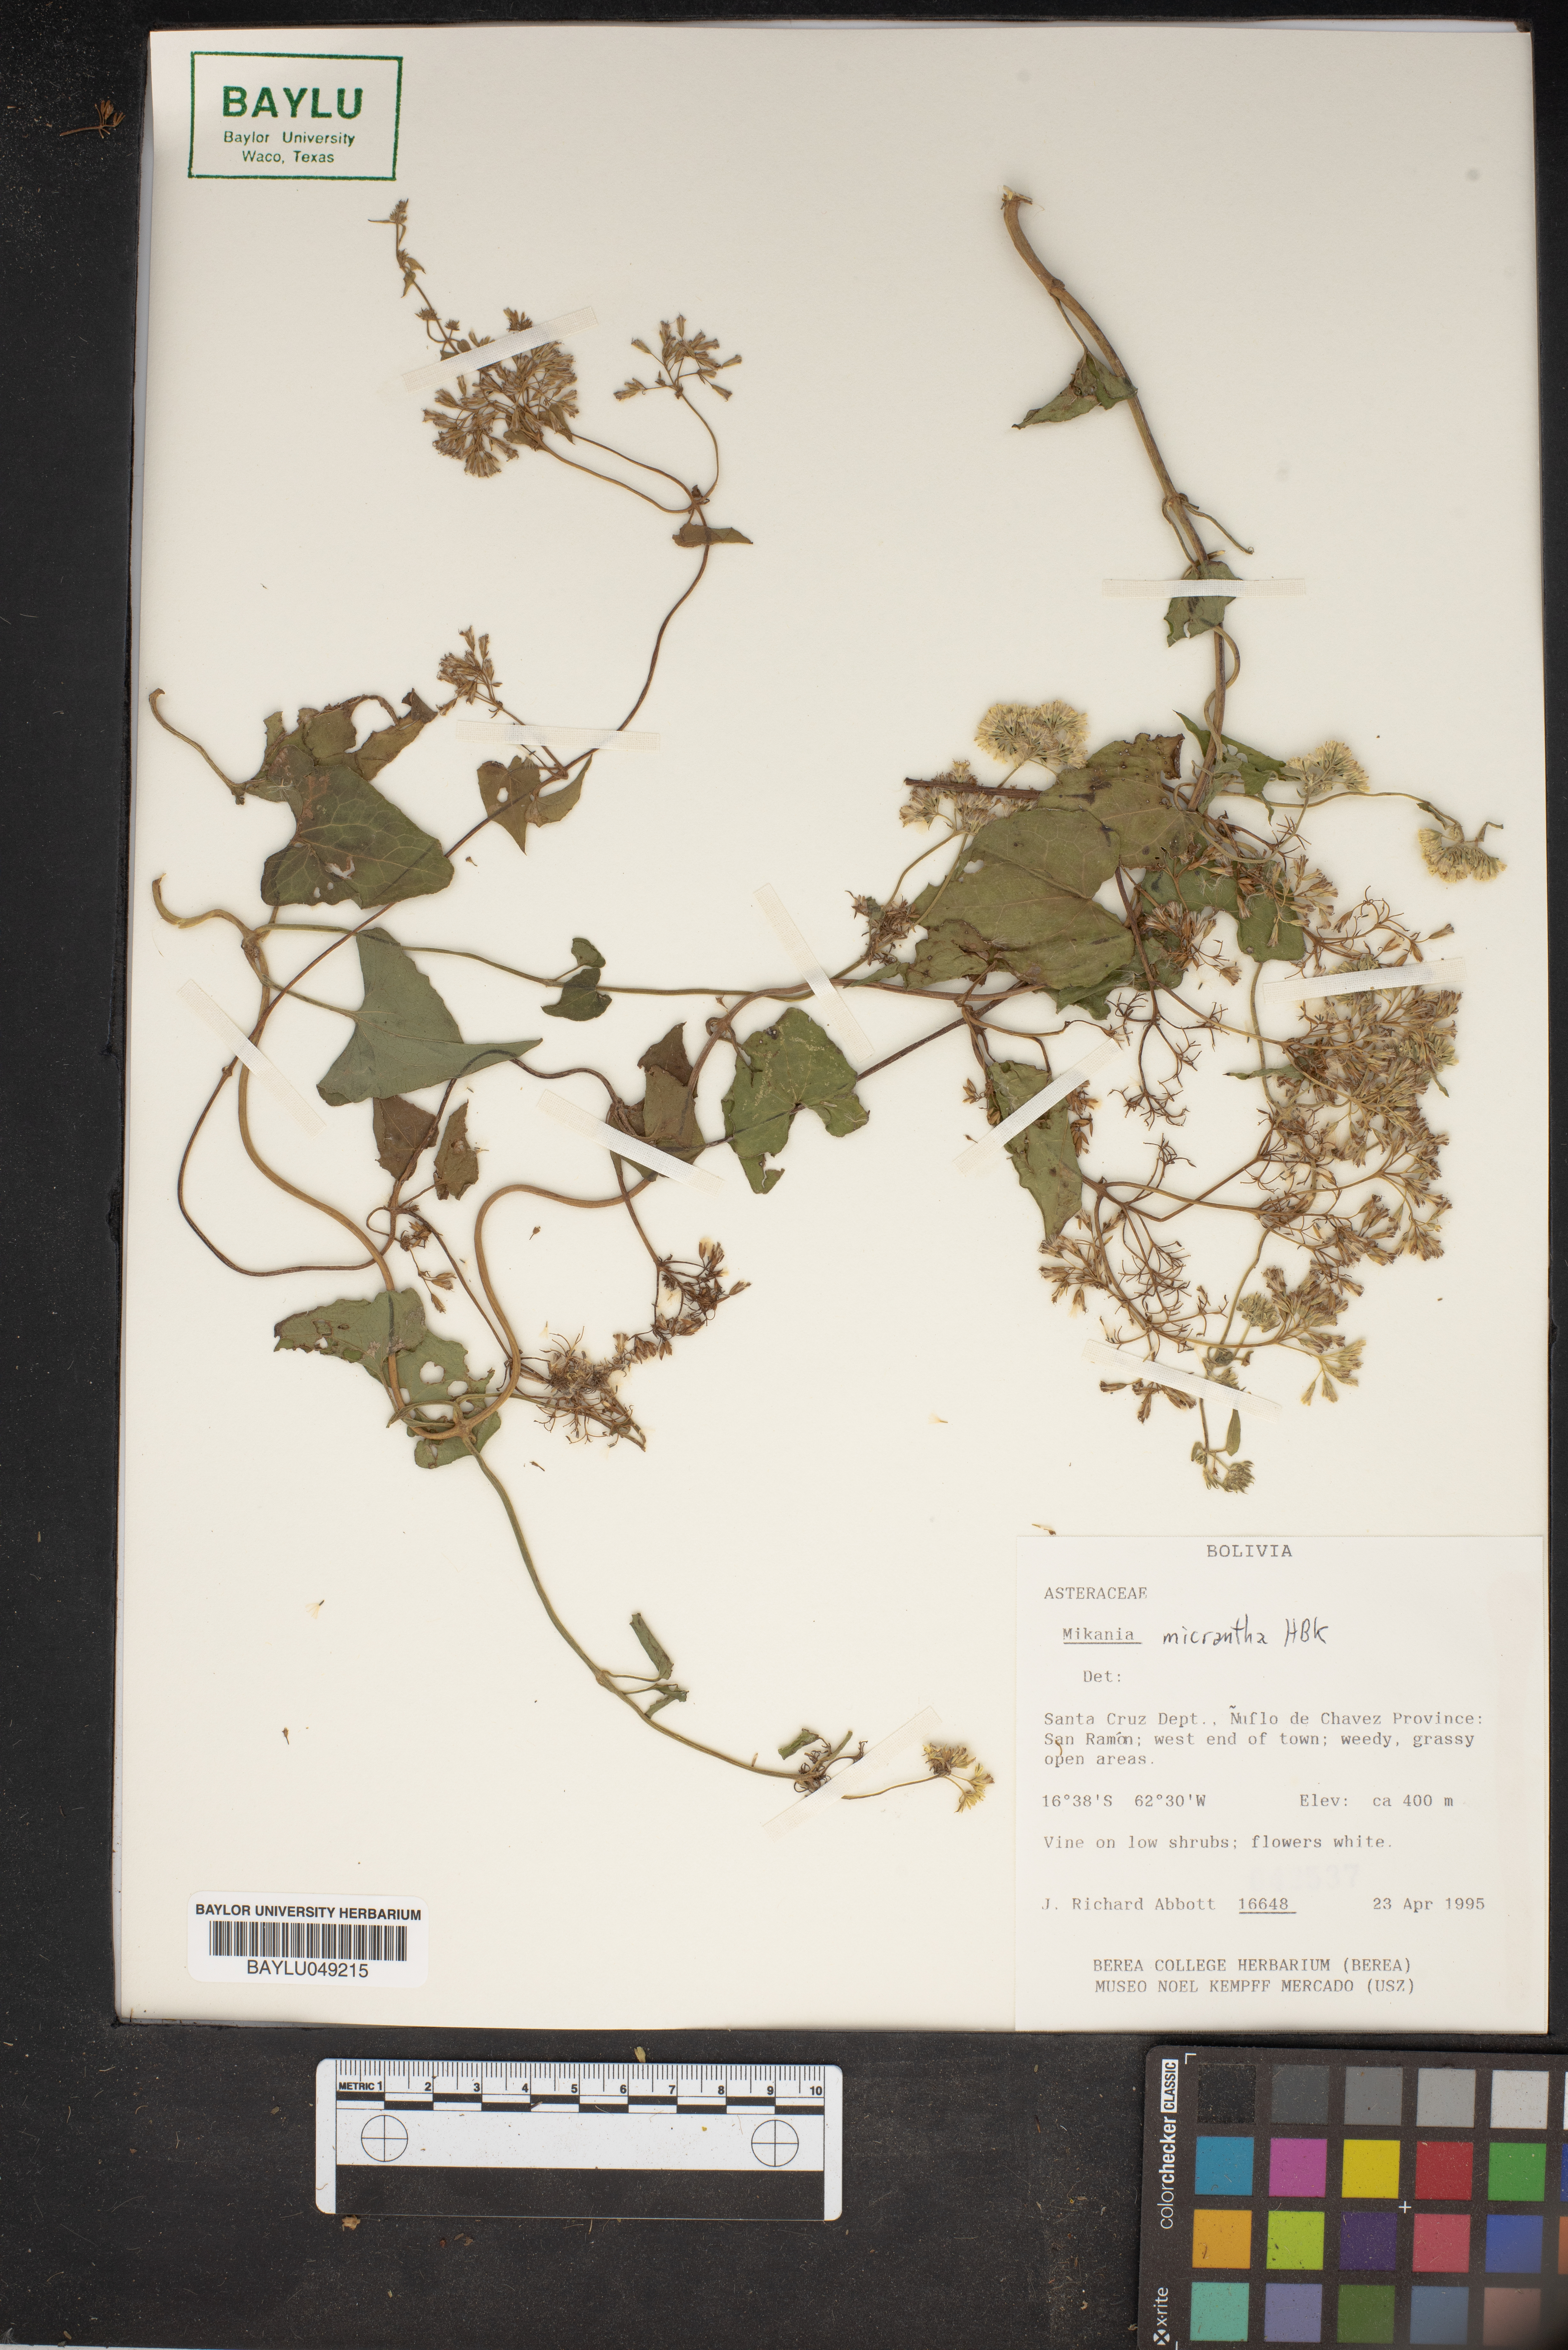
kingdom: Plantae
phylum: Tracheophyta
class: Magnoliopsida
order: Asterales
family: Asteraceae
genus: Mikania
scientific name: Mikania micrantha
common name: Mile-a-minute
